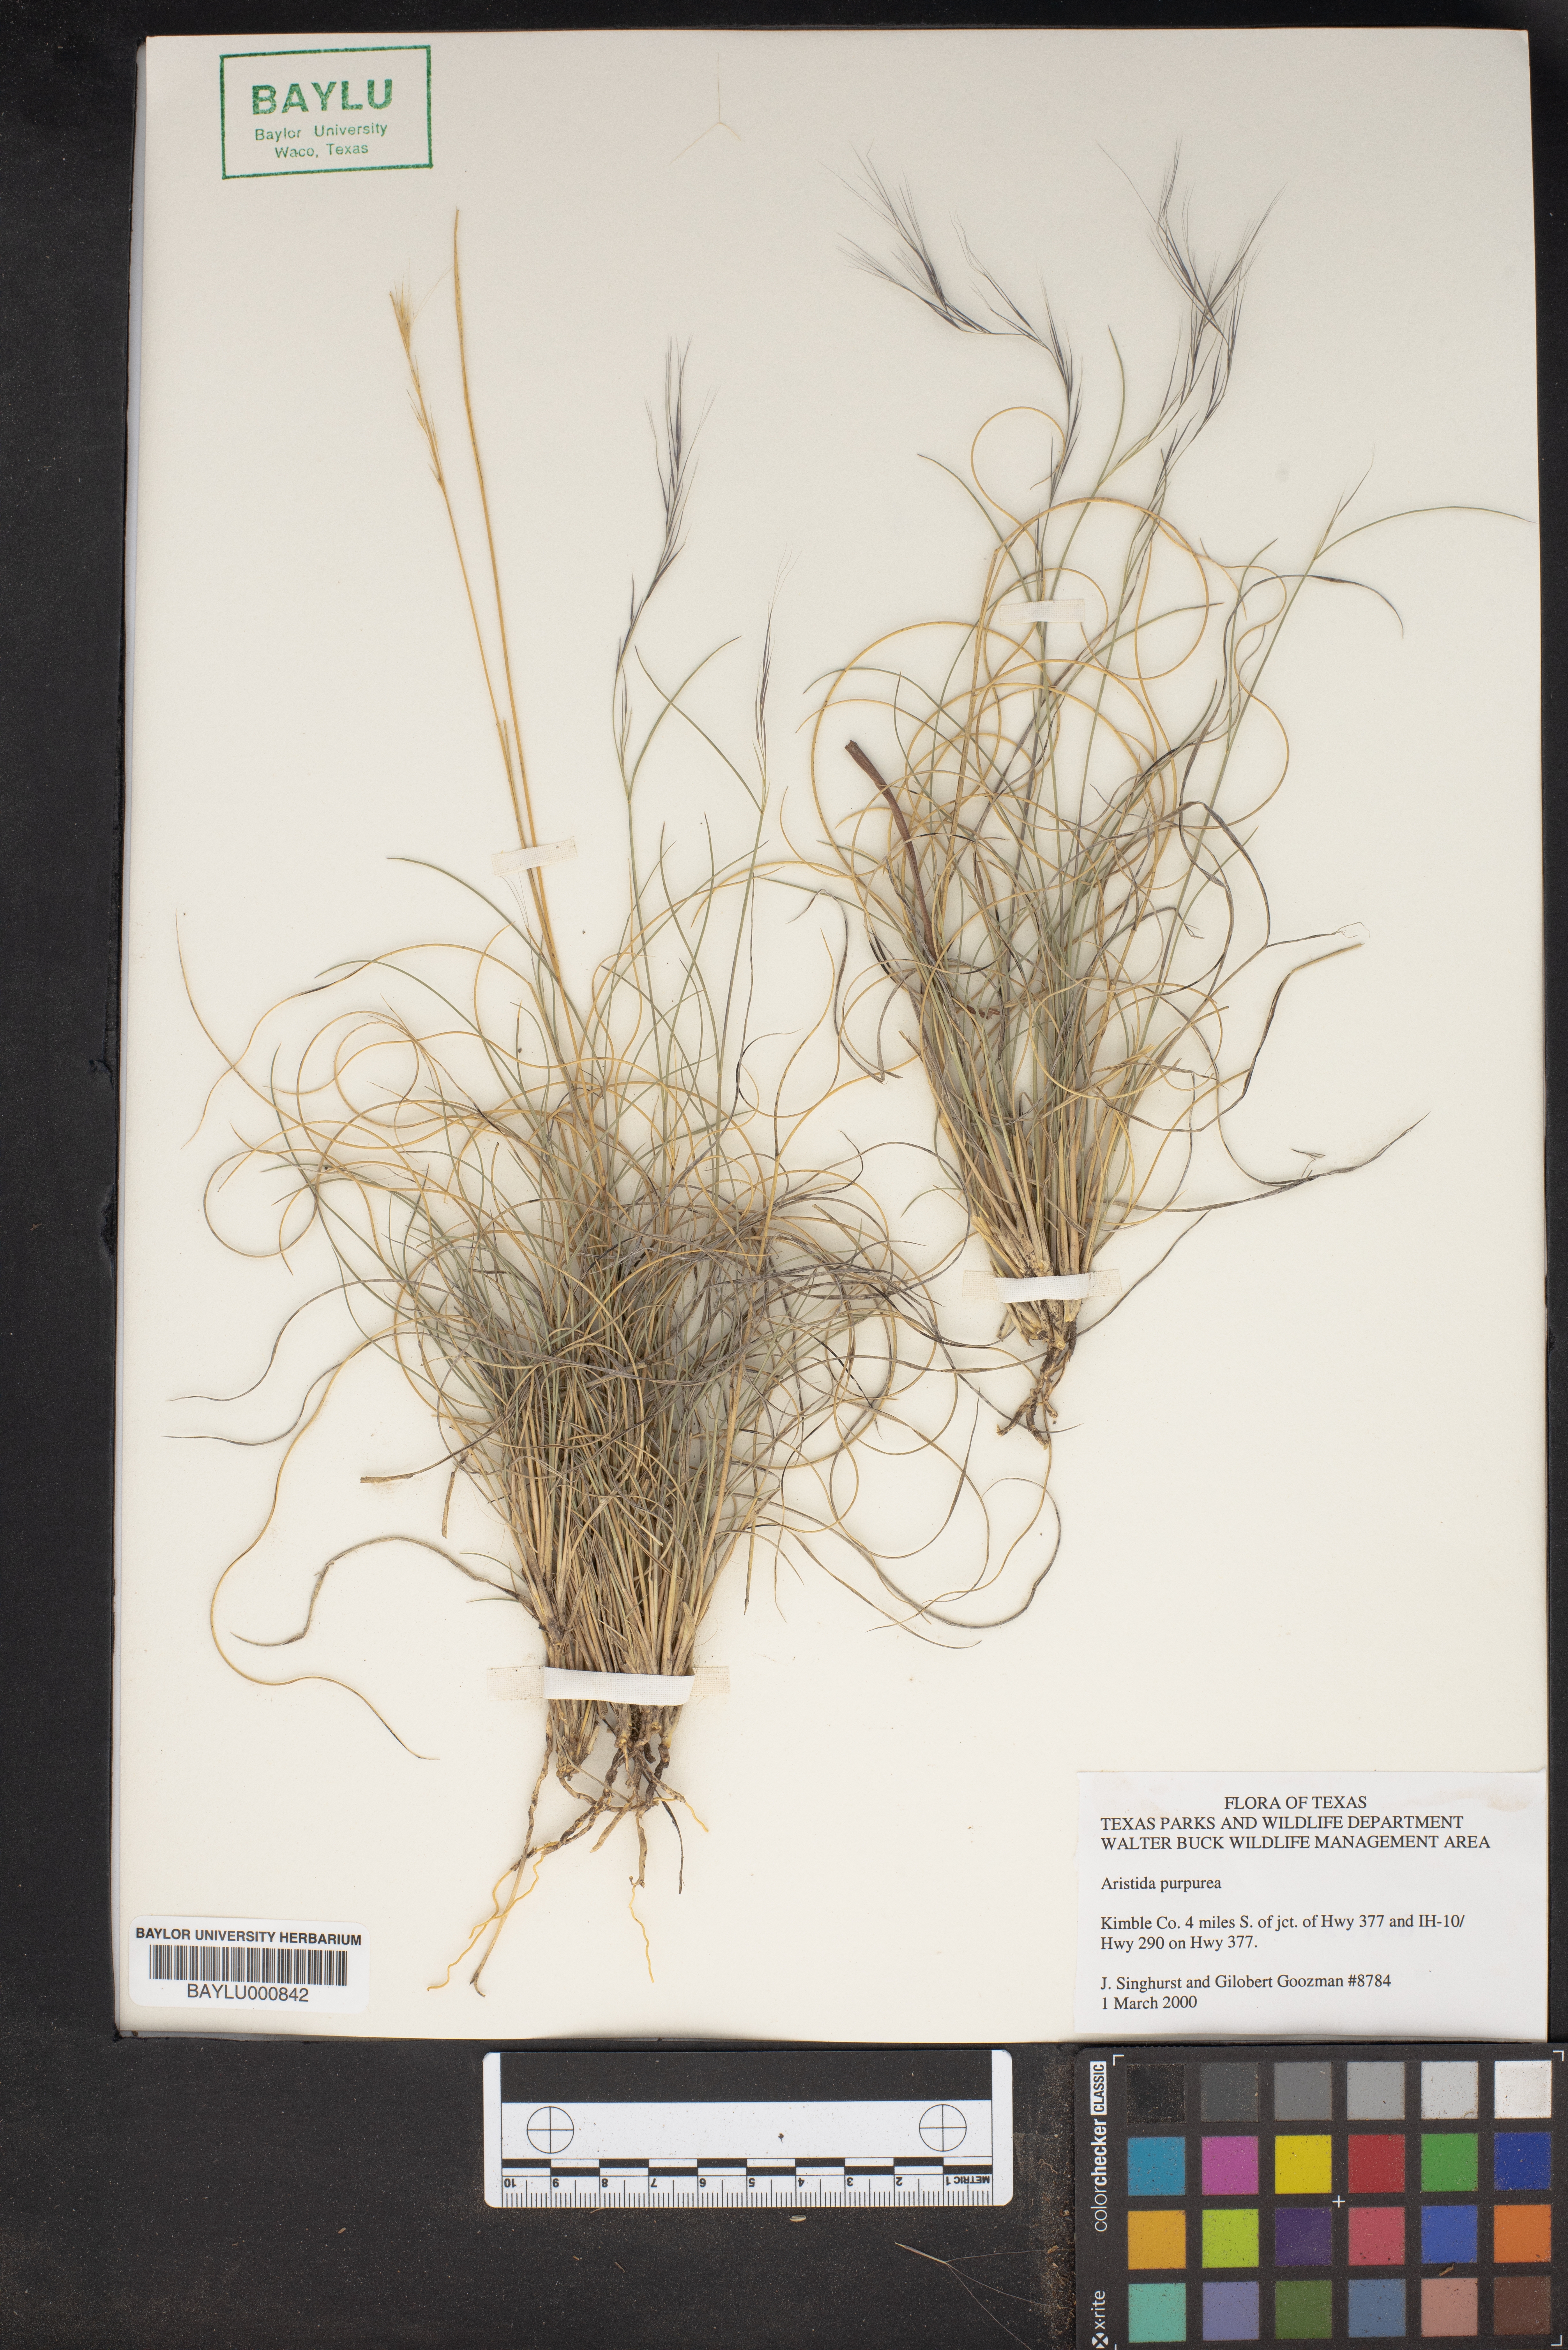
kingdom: Plantae
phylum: Tracheophyta
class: Liliopsida
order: Poales
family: Poaceae
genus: Aristida
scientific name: Aristida purpurea
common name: Purple threeawn
